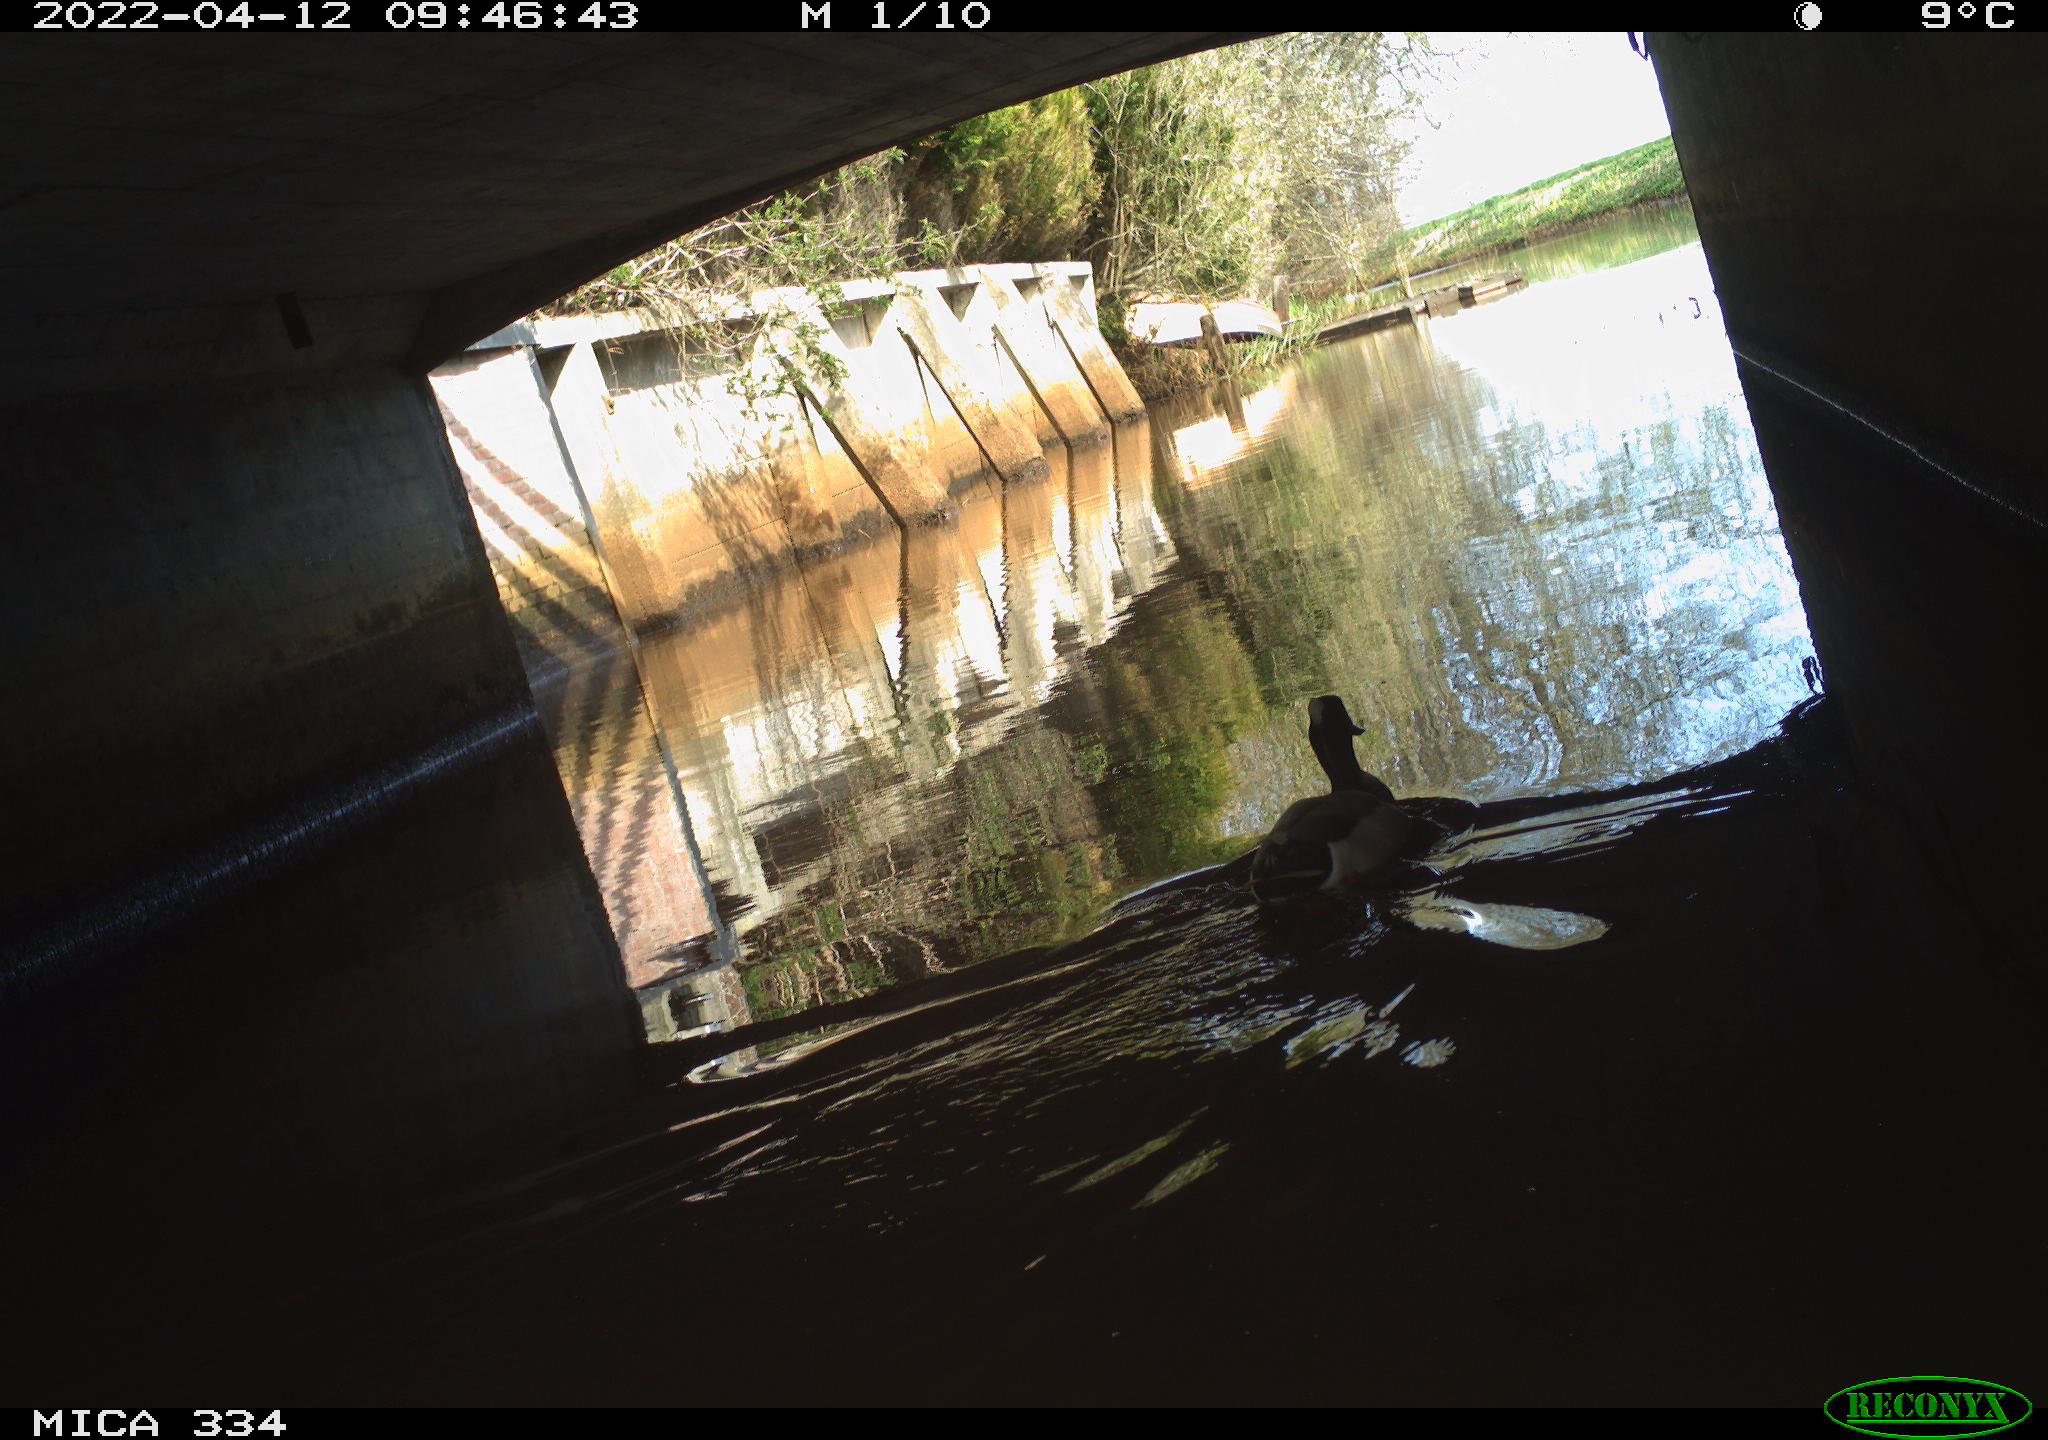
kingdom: Animalia
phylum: Chordata
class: Aves
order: Anseriformes
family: Anatidae
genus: Anas
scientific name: Anas platyrhynchos
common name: Mallard
